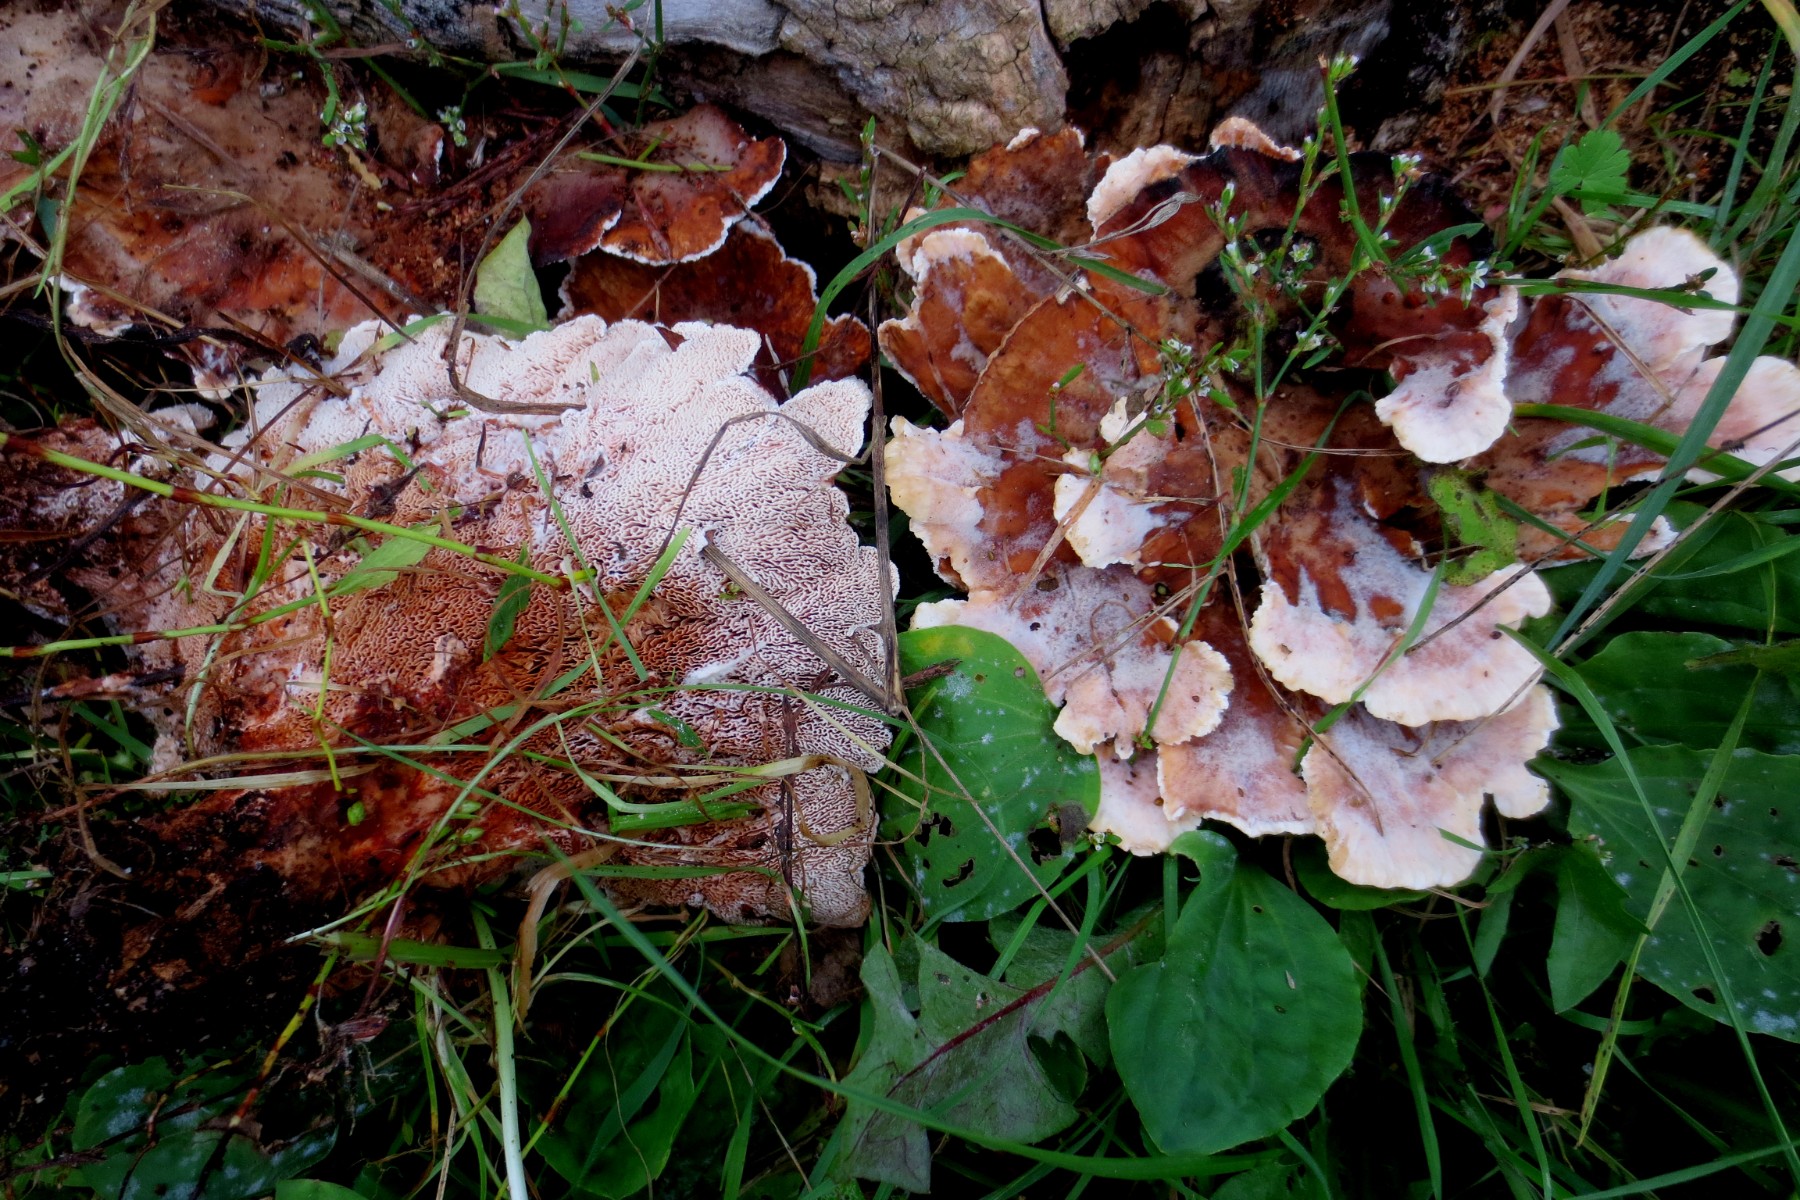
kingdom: Fungi
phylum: Basidiomycota
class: Agaricomycetes
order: Polyporales
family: Podoscyphaceae
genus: Abortiporus
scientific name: Abortiporus biennis
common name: rødmende pjalteporesvamp
